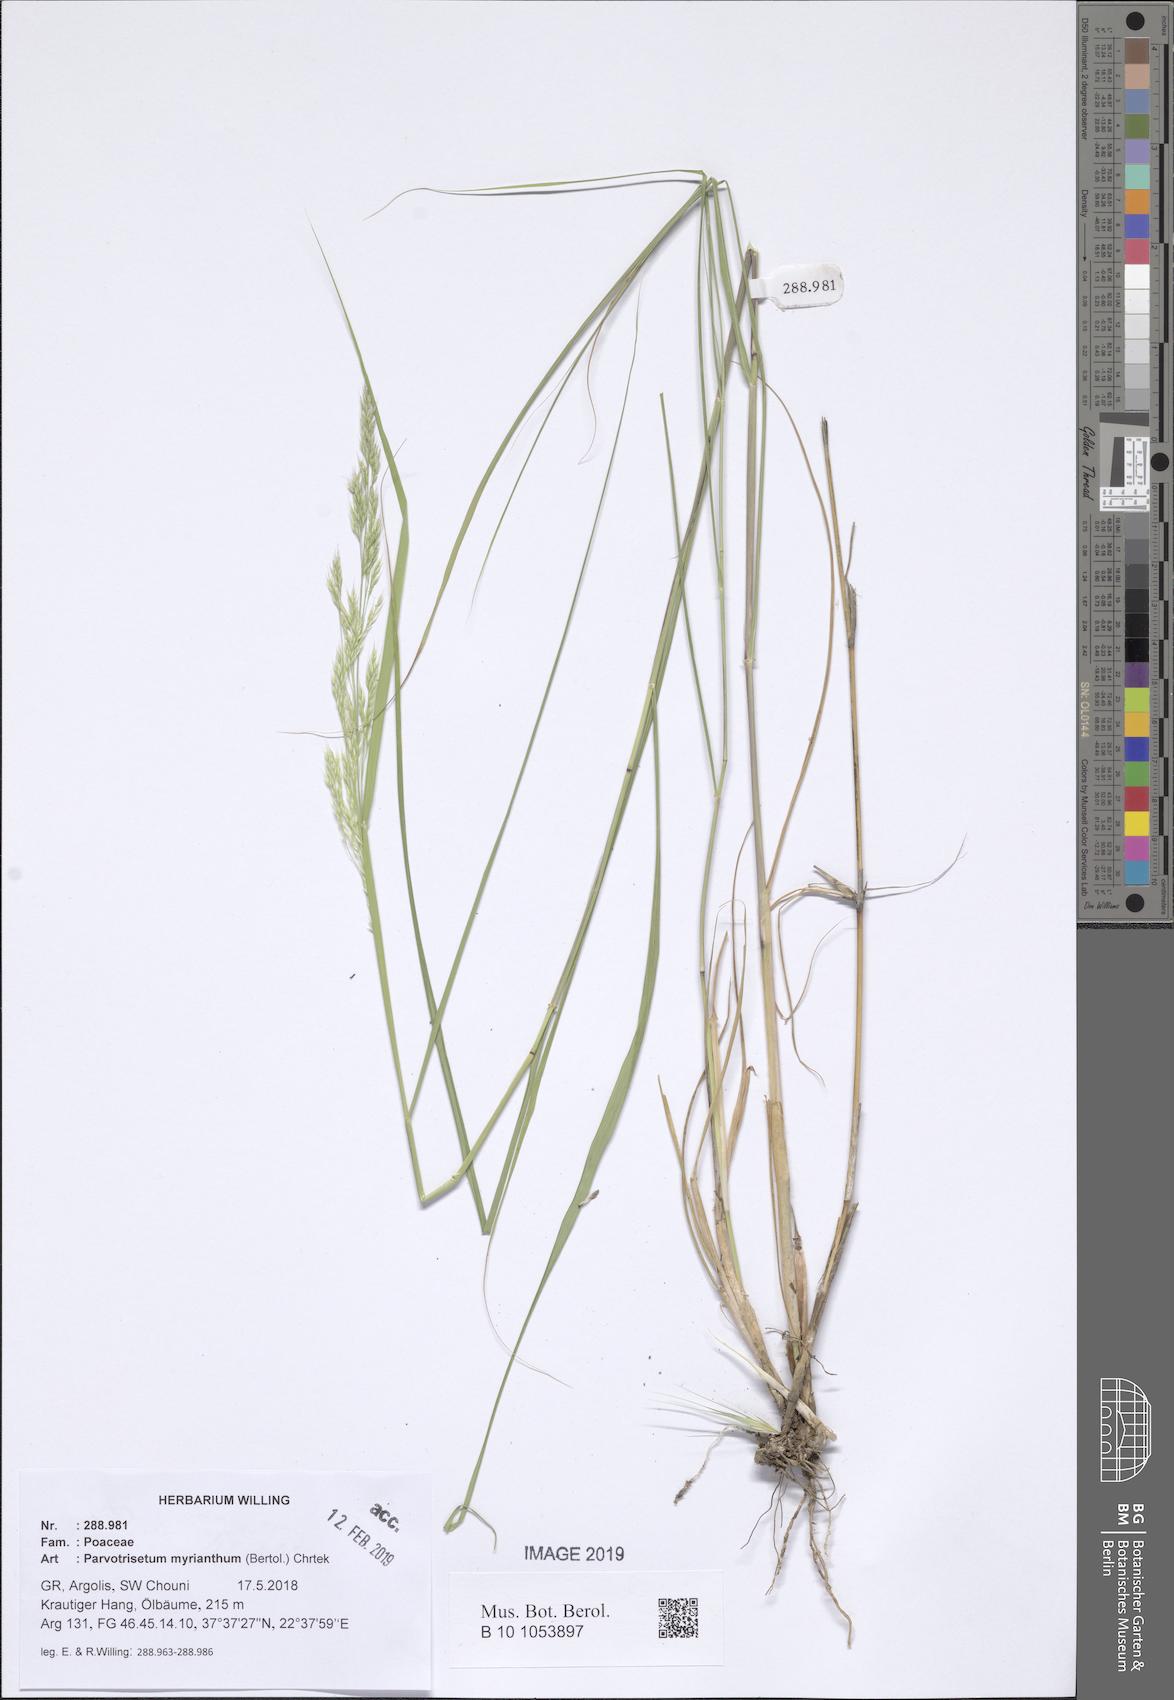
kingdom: Plantae
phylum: Tracheophyta
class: Liliopsida
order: Poales
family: Poaceae
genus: Parvotrisetum
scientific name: Parvotrisetum myrianthum
